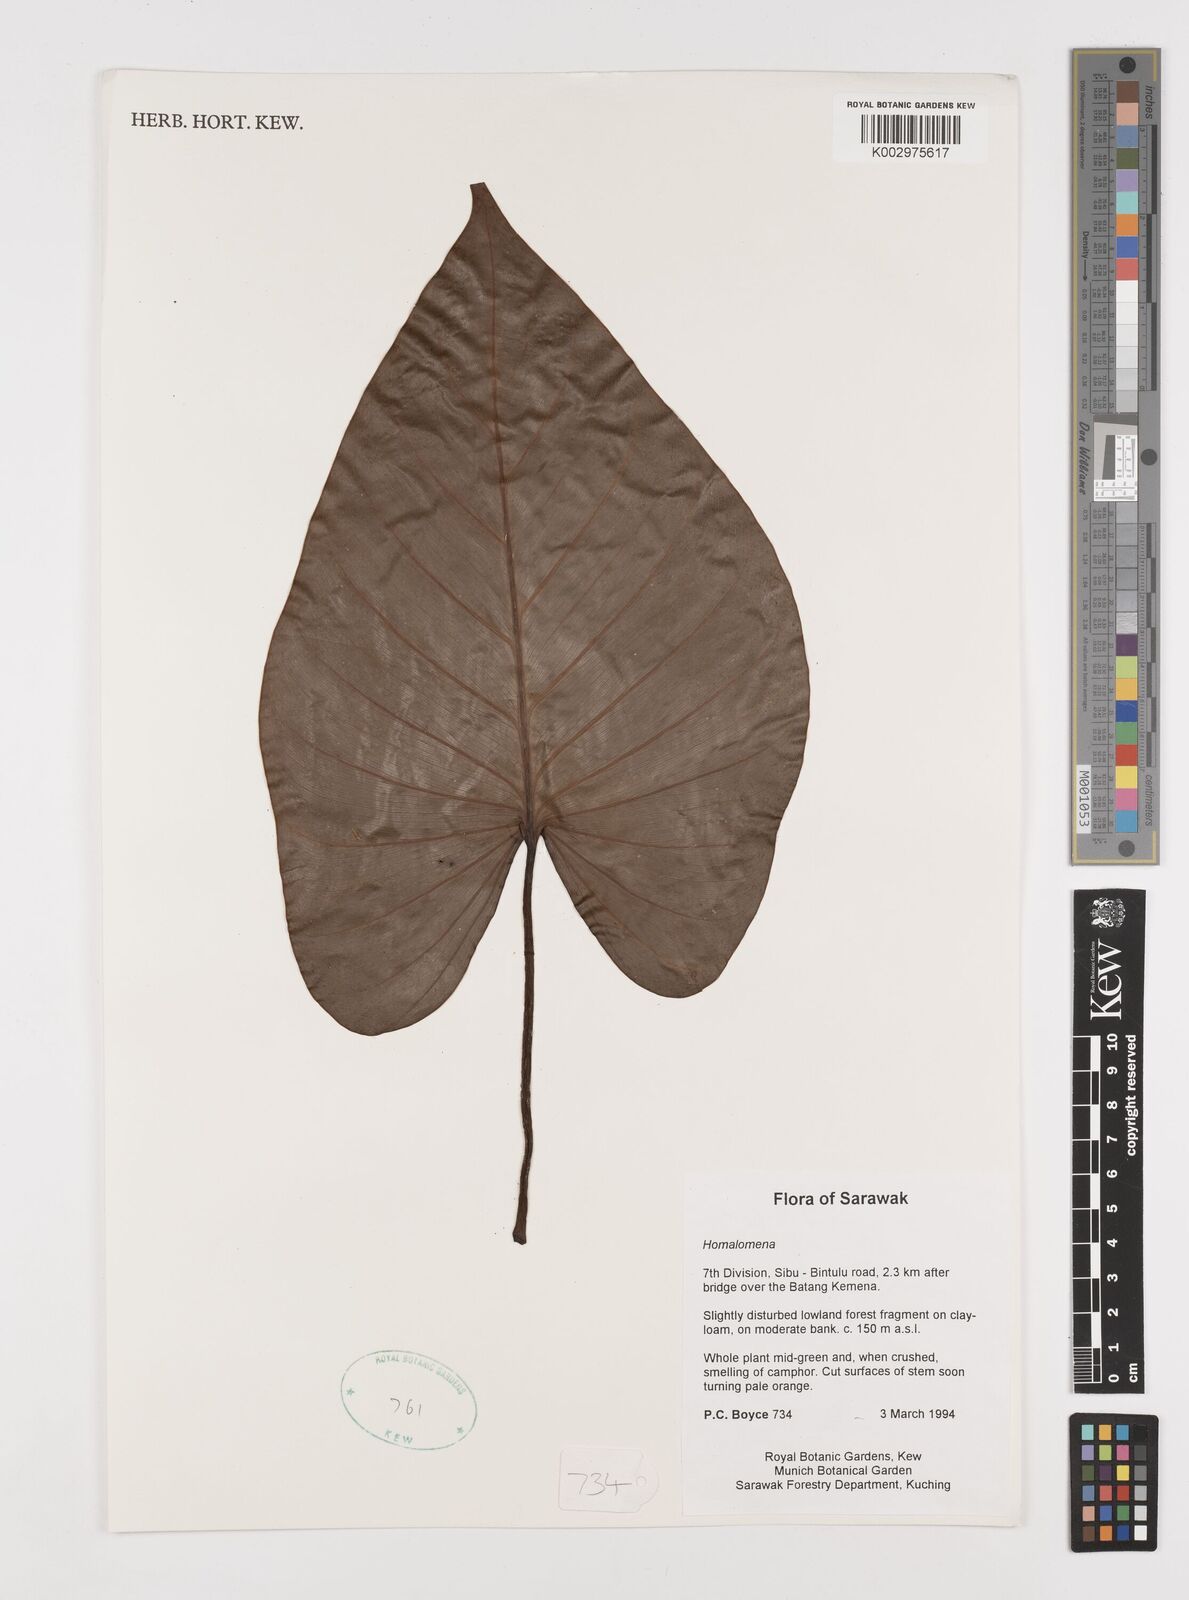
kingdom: Plantae
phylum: Tracheophyta
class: Liliopsida
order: Alismatales
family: Araceae
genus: Homalomena
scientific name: Homalomena
